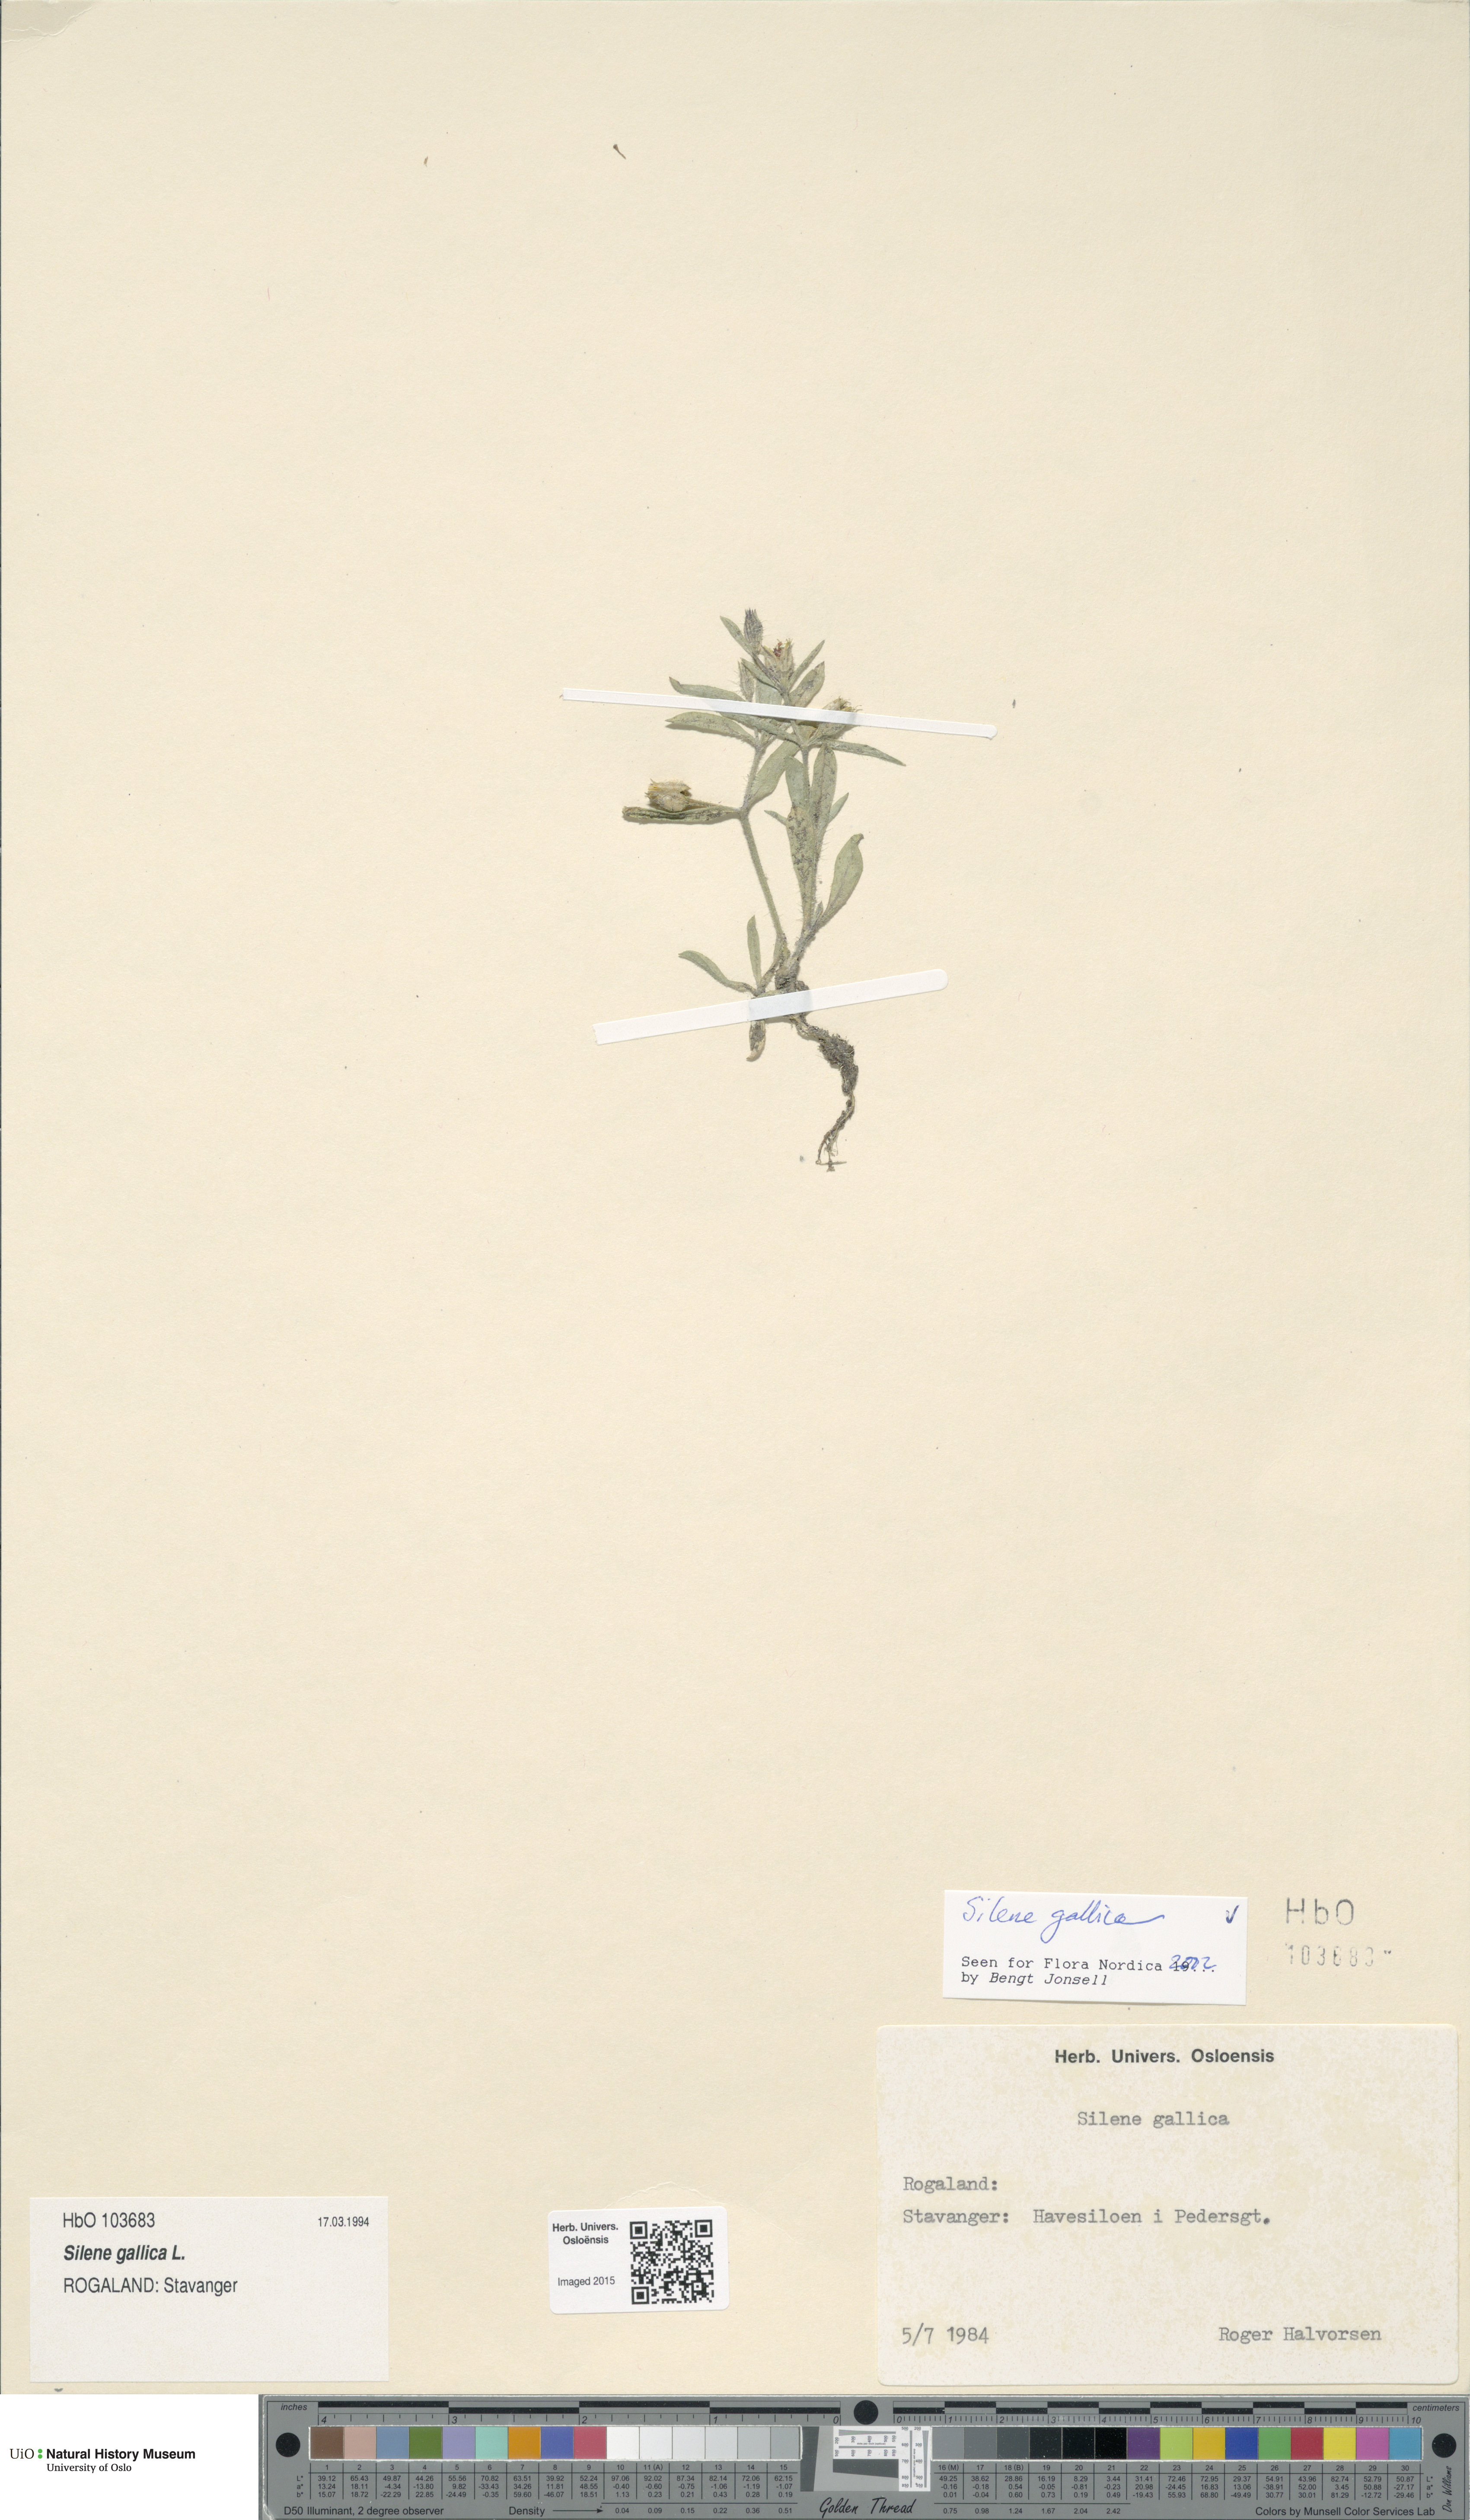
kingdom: Plantae
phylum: Tracheophyta
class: Magnoliopsida
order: Caryophyllales
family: Caryophyllaceae
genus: Silene
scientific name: Silene gallica
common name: Small-flowered catchfly
